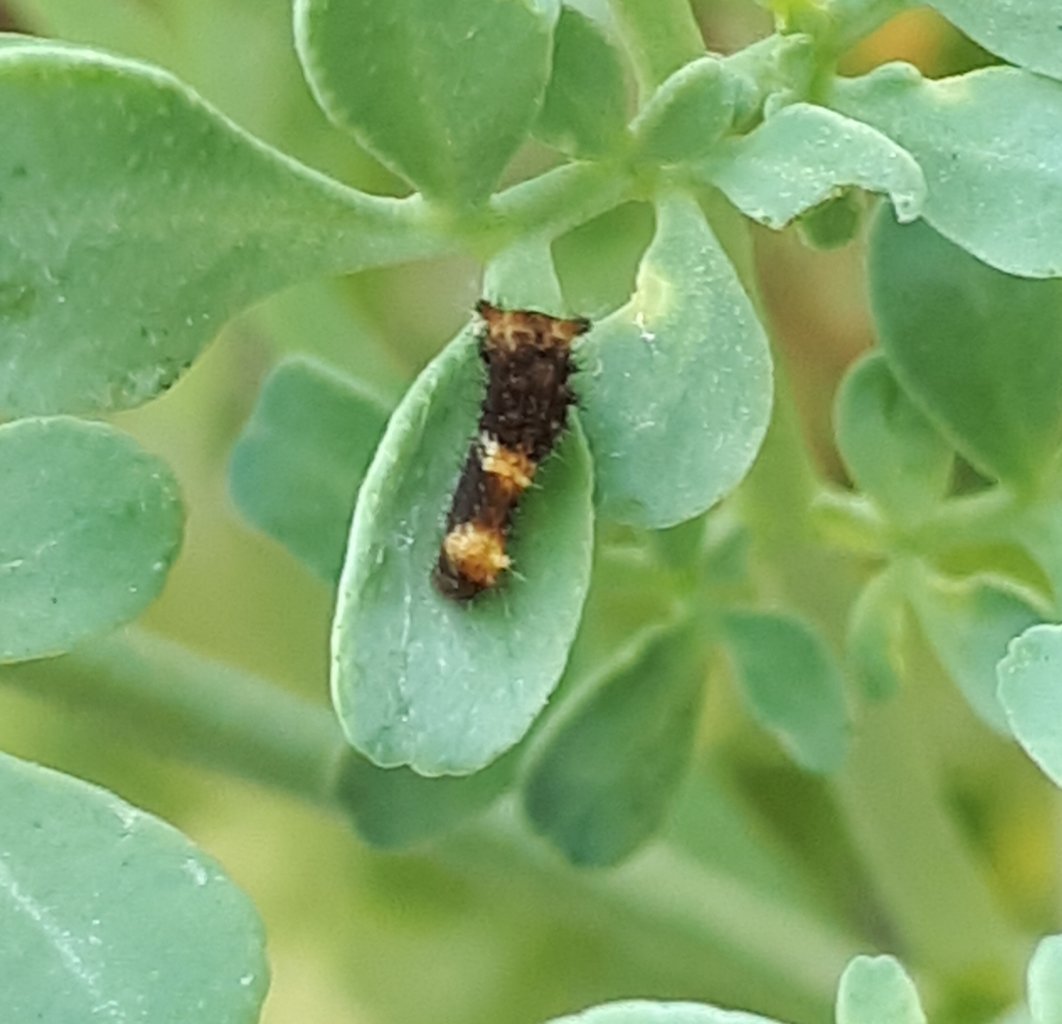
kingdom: Animalia
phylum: Arthropoda
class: Insecta
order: Lepidoptera
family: Papilionidae
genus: Papilio
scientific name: Papilio cresphontes
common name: Eastern Giant Swallowtail
